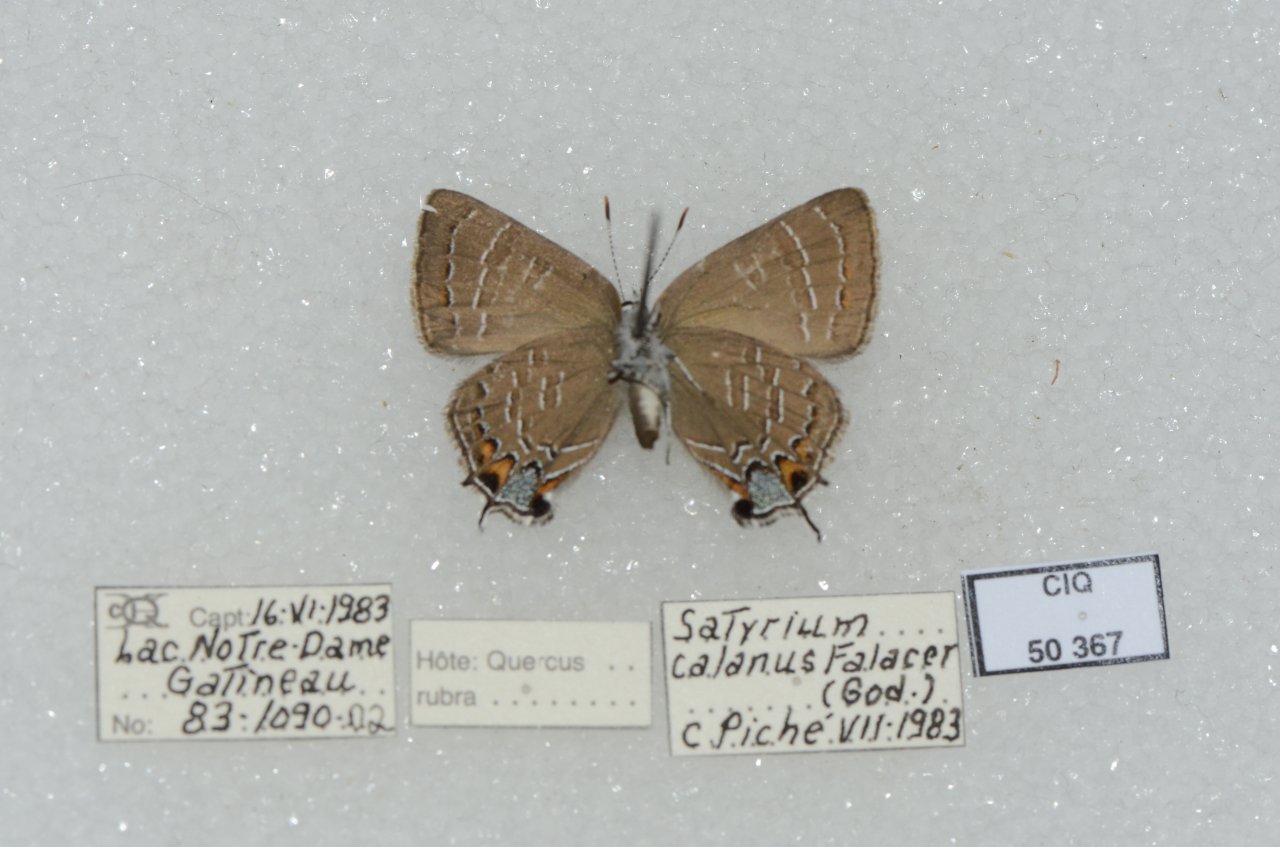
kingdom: Animalia
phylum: Arthropoda
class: Insecta
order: Lepidoptera
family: Lycaenidae
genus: Satyrium
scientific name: Satyrium calanus
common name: Banded Hairstreak
